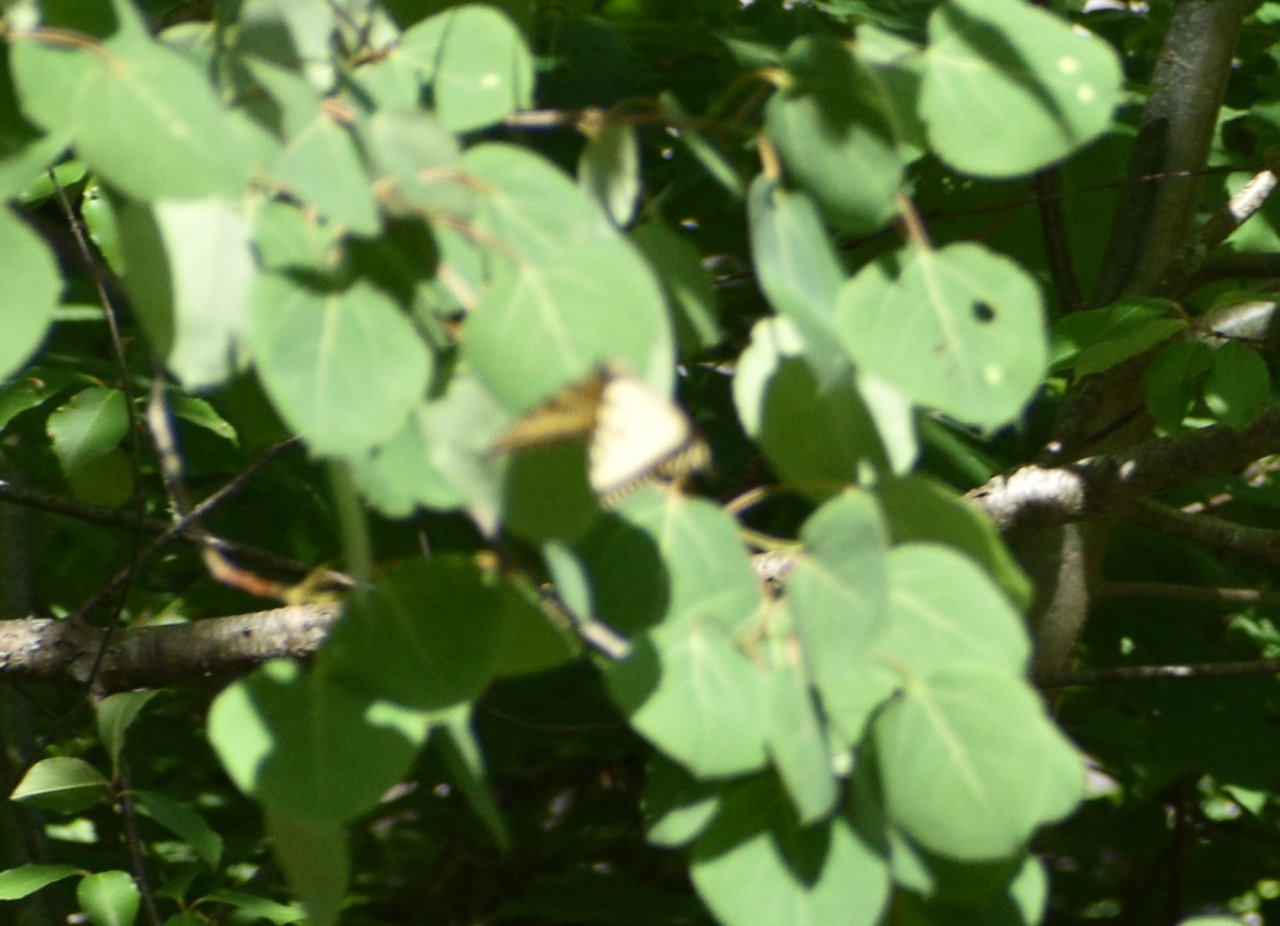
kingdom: Animalia
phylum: Arthropoda
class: Insecta
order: Lepidoptera
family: Papilionidae
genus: Pterourus
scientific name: Pterourus canadensis
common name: Canadian Tiger Swallowtail
